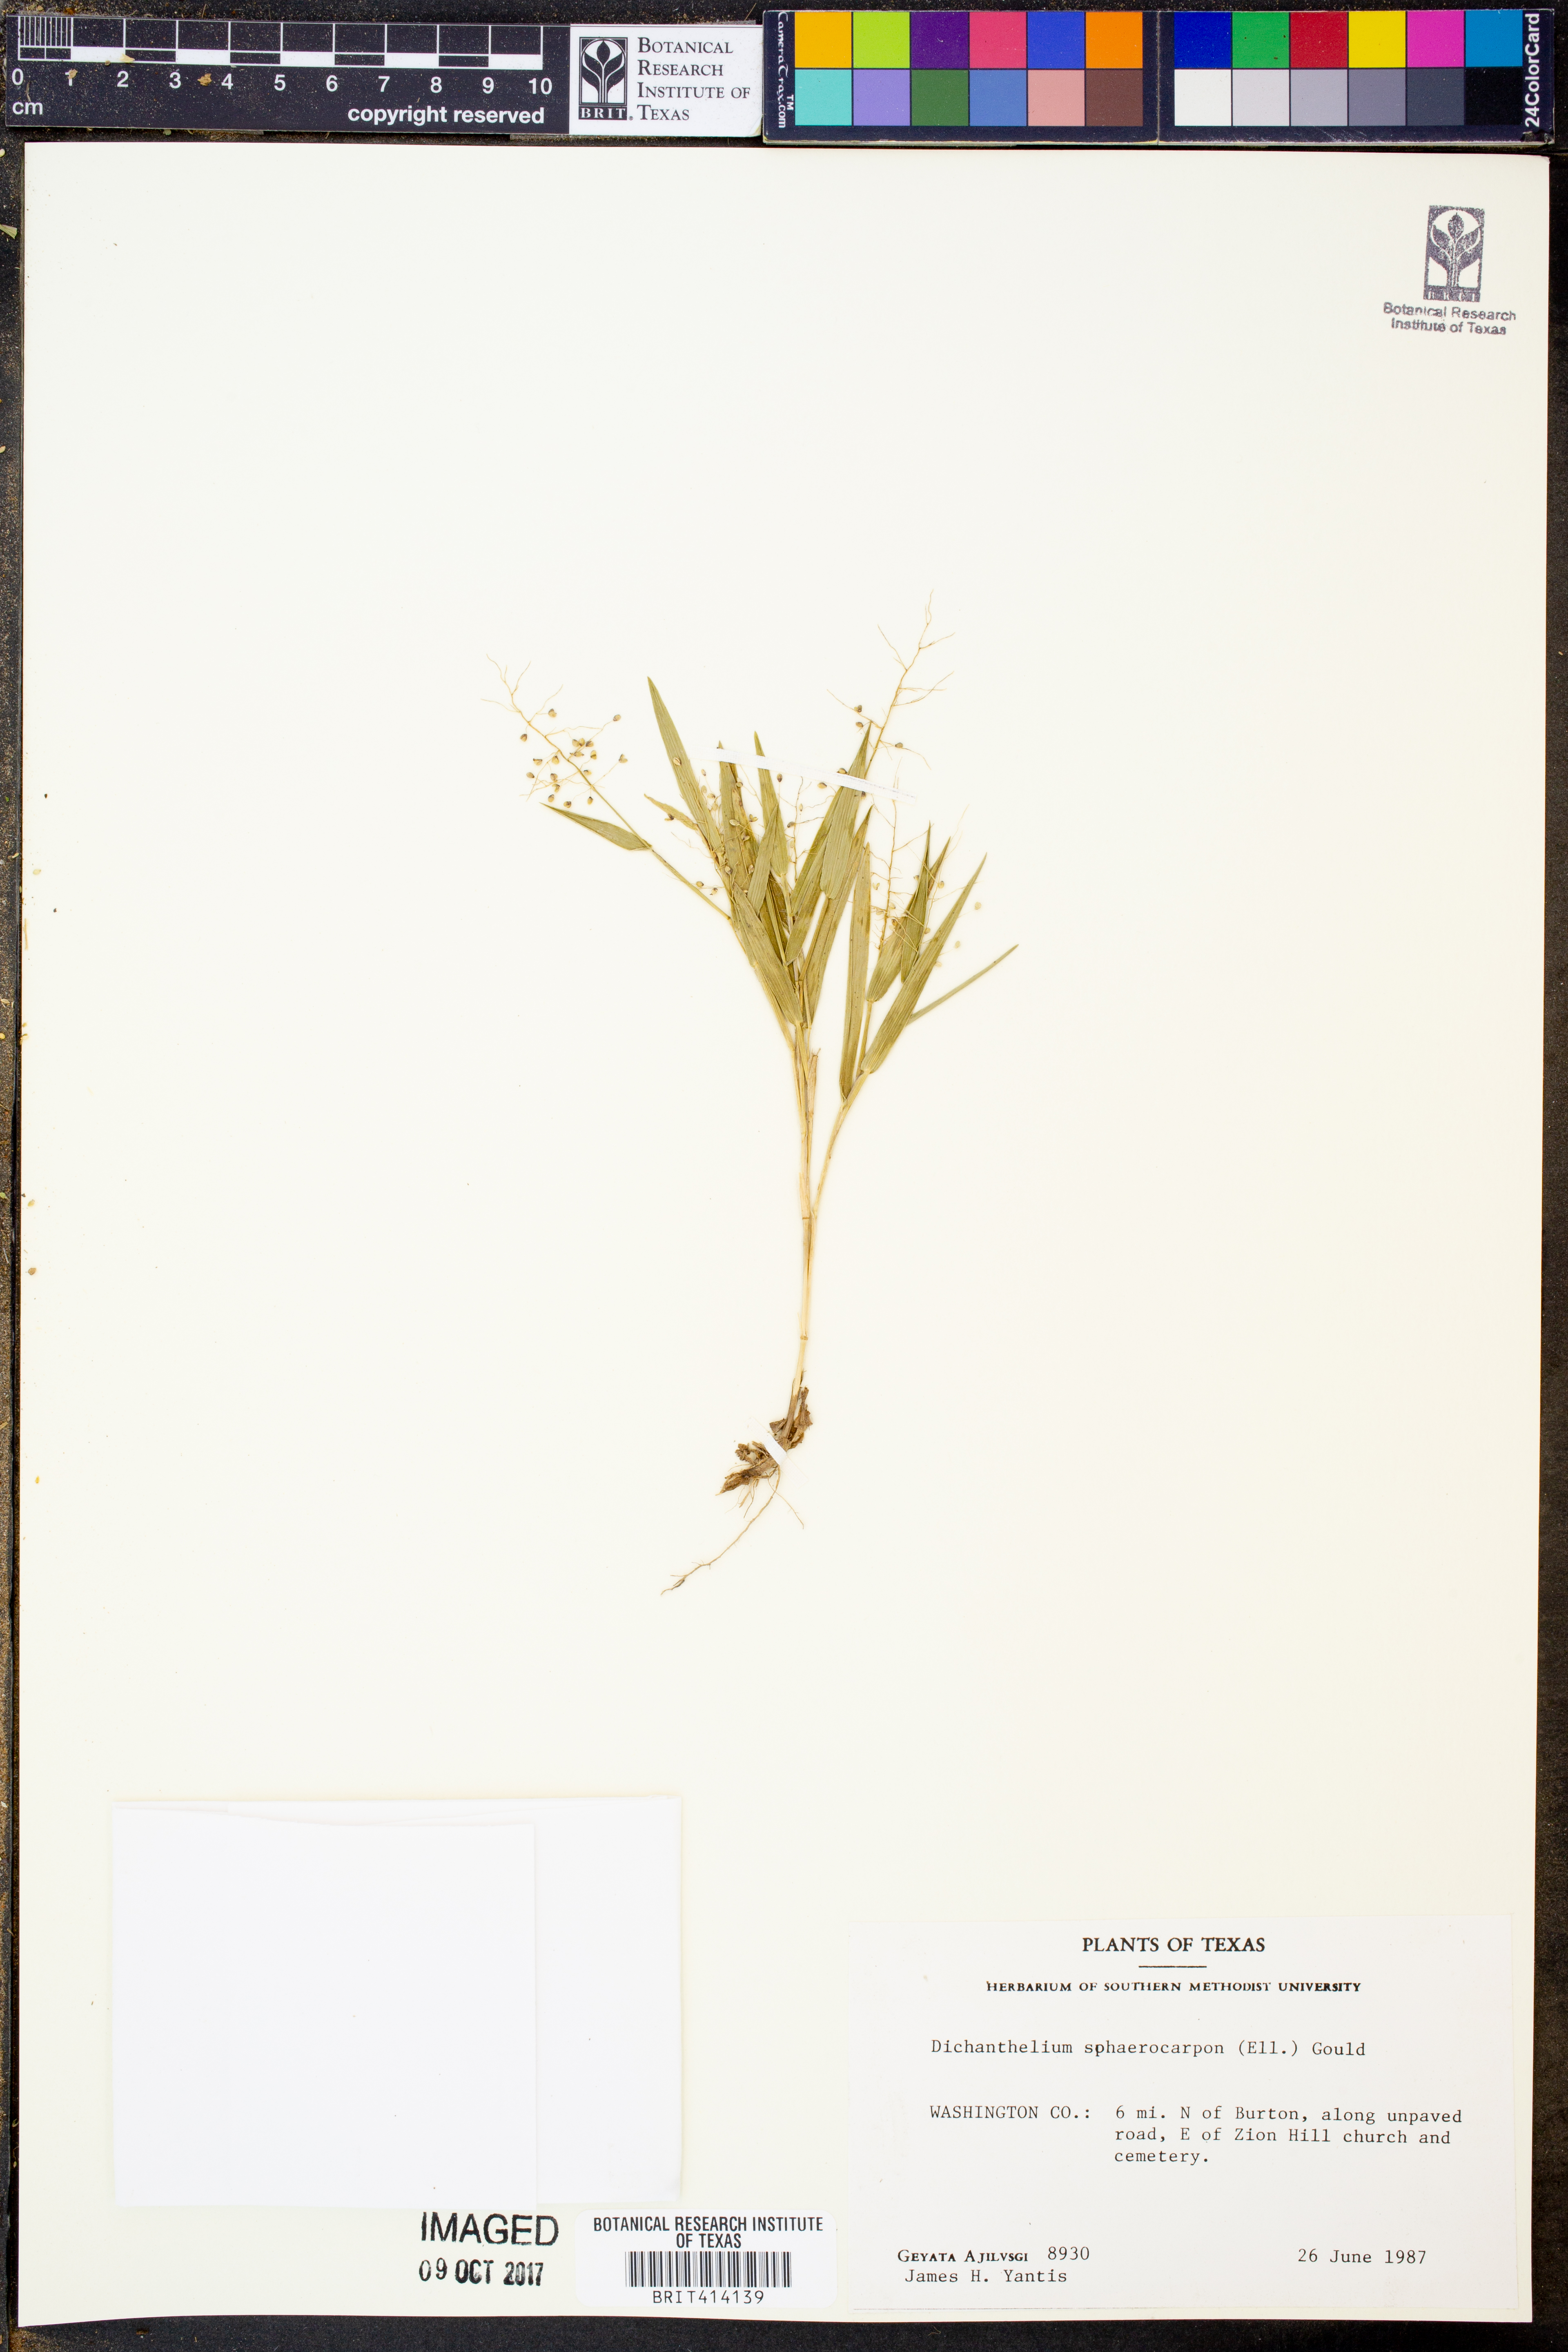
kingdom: Plantae
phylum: Tracheophyta
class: Liliopsida
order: Poales
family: Poaceae
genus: Dichanthelium
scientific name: Dichanthelium sphaerocarpon
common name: Round-fruited panicgrass
